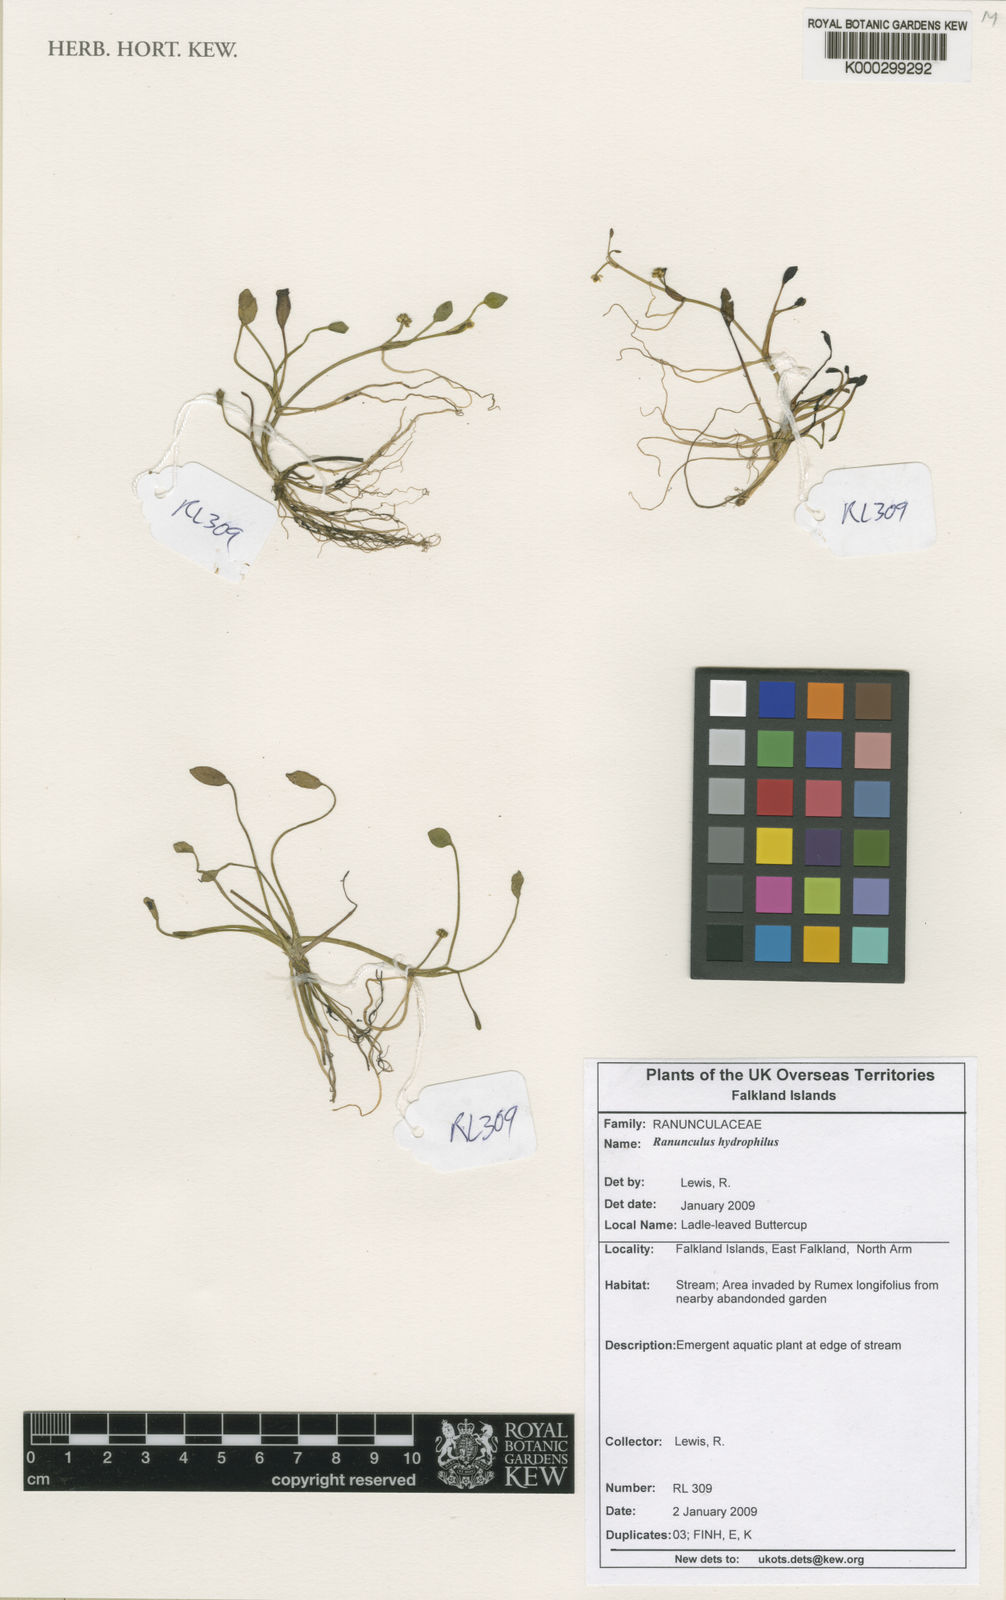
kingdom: Plantae
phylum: Tracheophyta
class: Magnoliopsida
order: Ranunculales
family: Ranunculaceae
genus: Ranunculus
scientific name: Ranunculus hydrophilus
